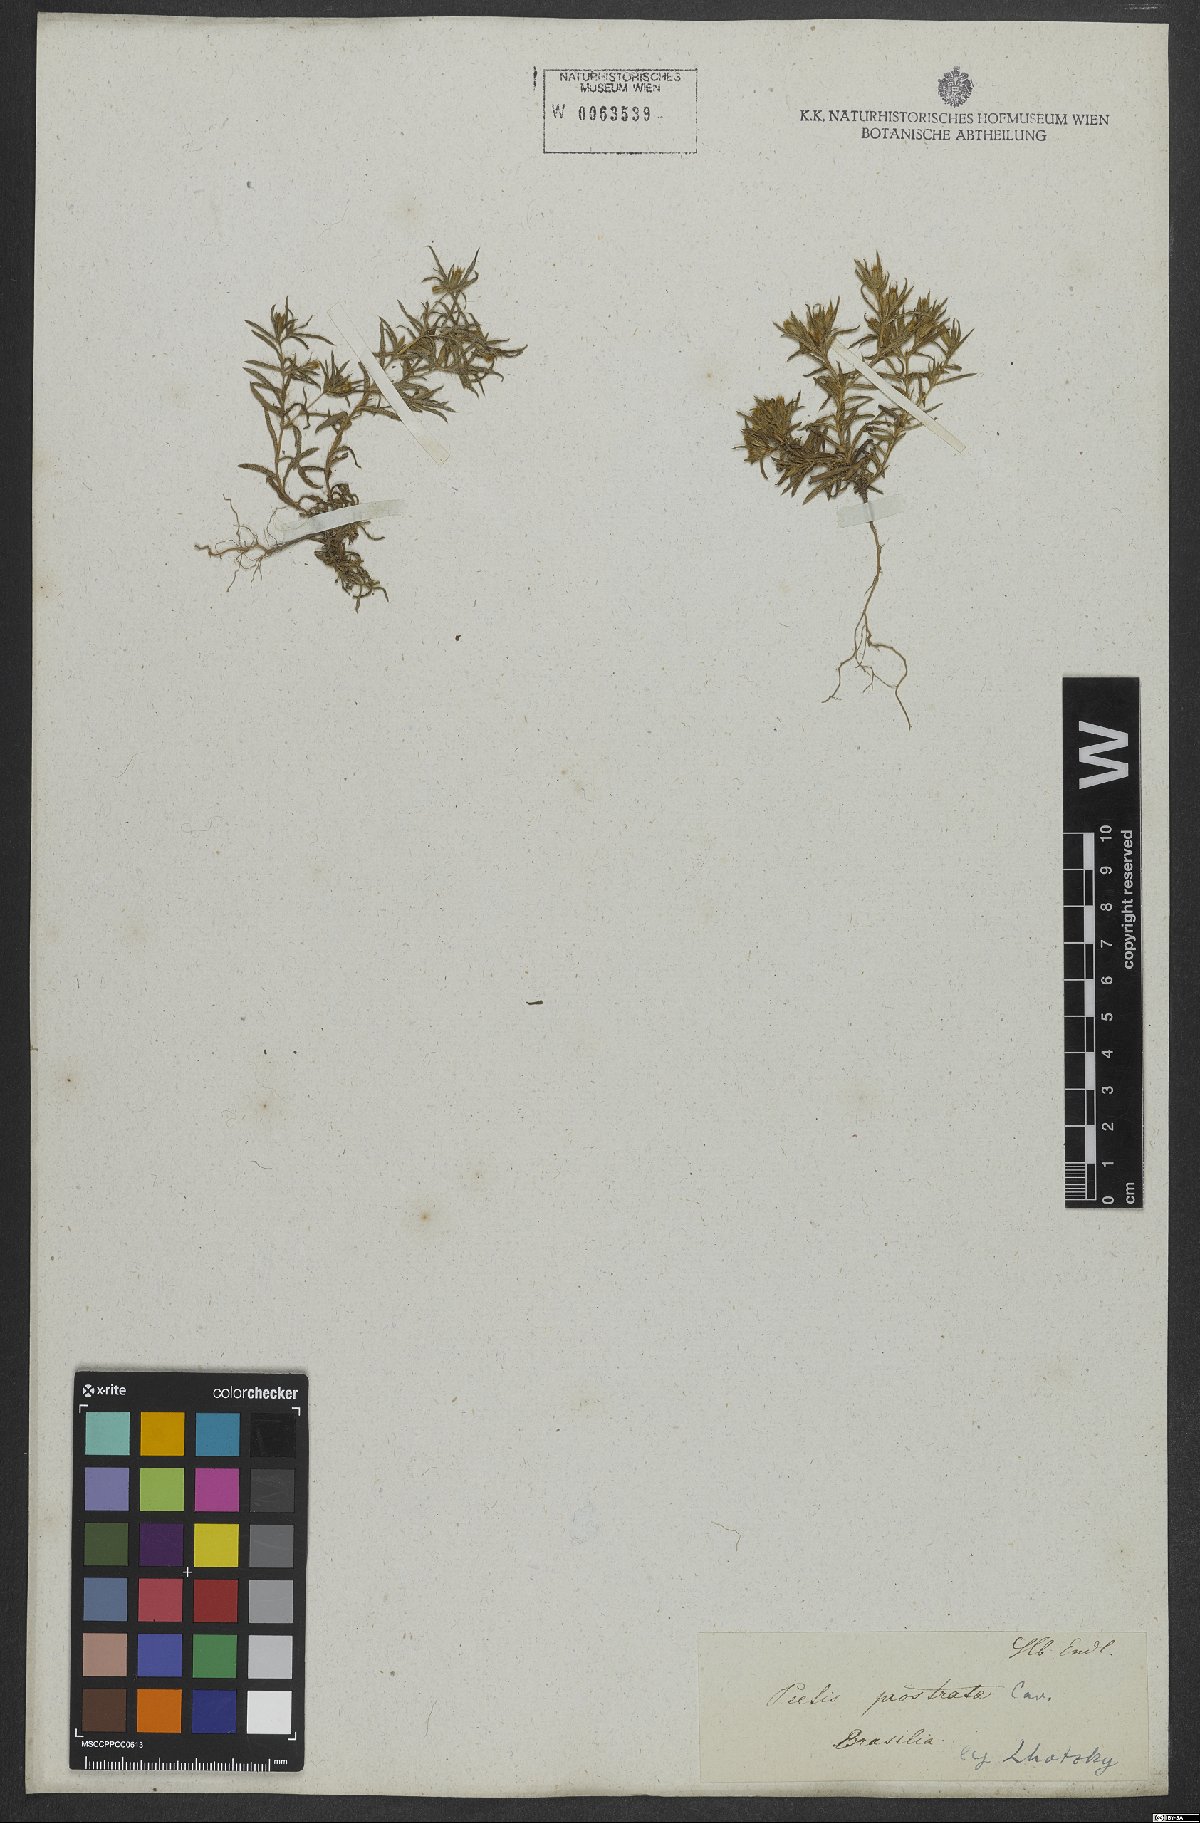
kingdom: Plantae
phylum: Tracheophyta
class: Magnoliopsida
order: Asterales
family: Asteraceae
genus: Pectis
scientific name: Pectis prostrata
